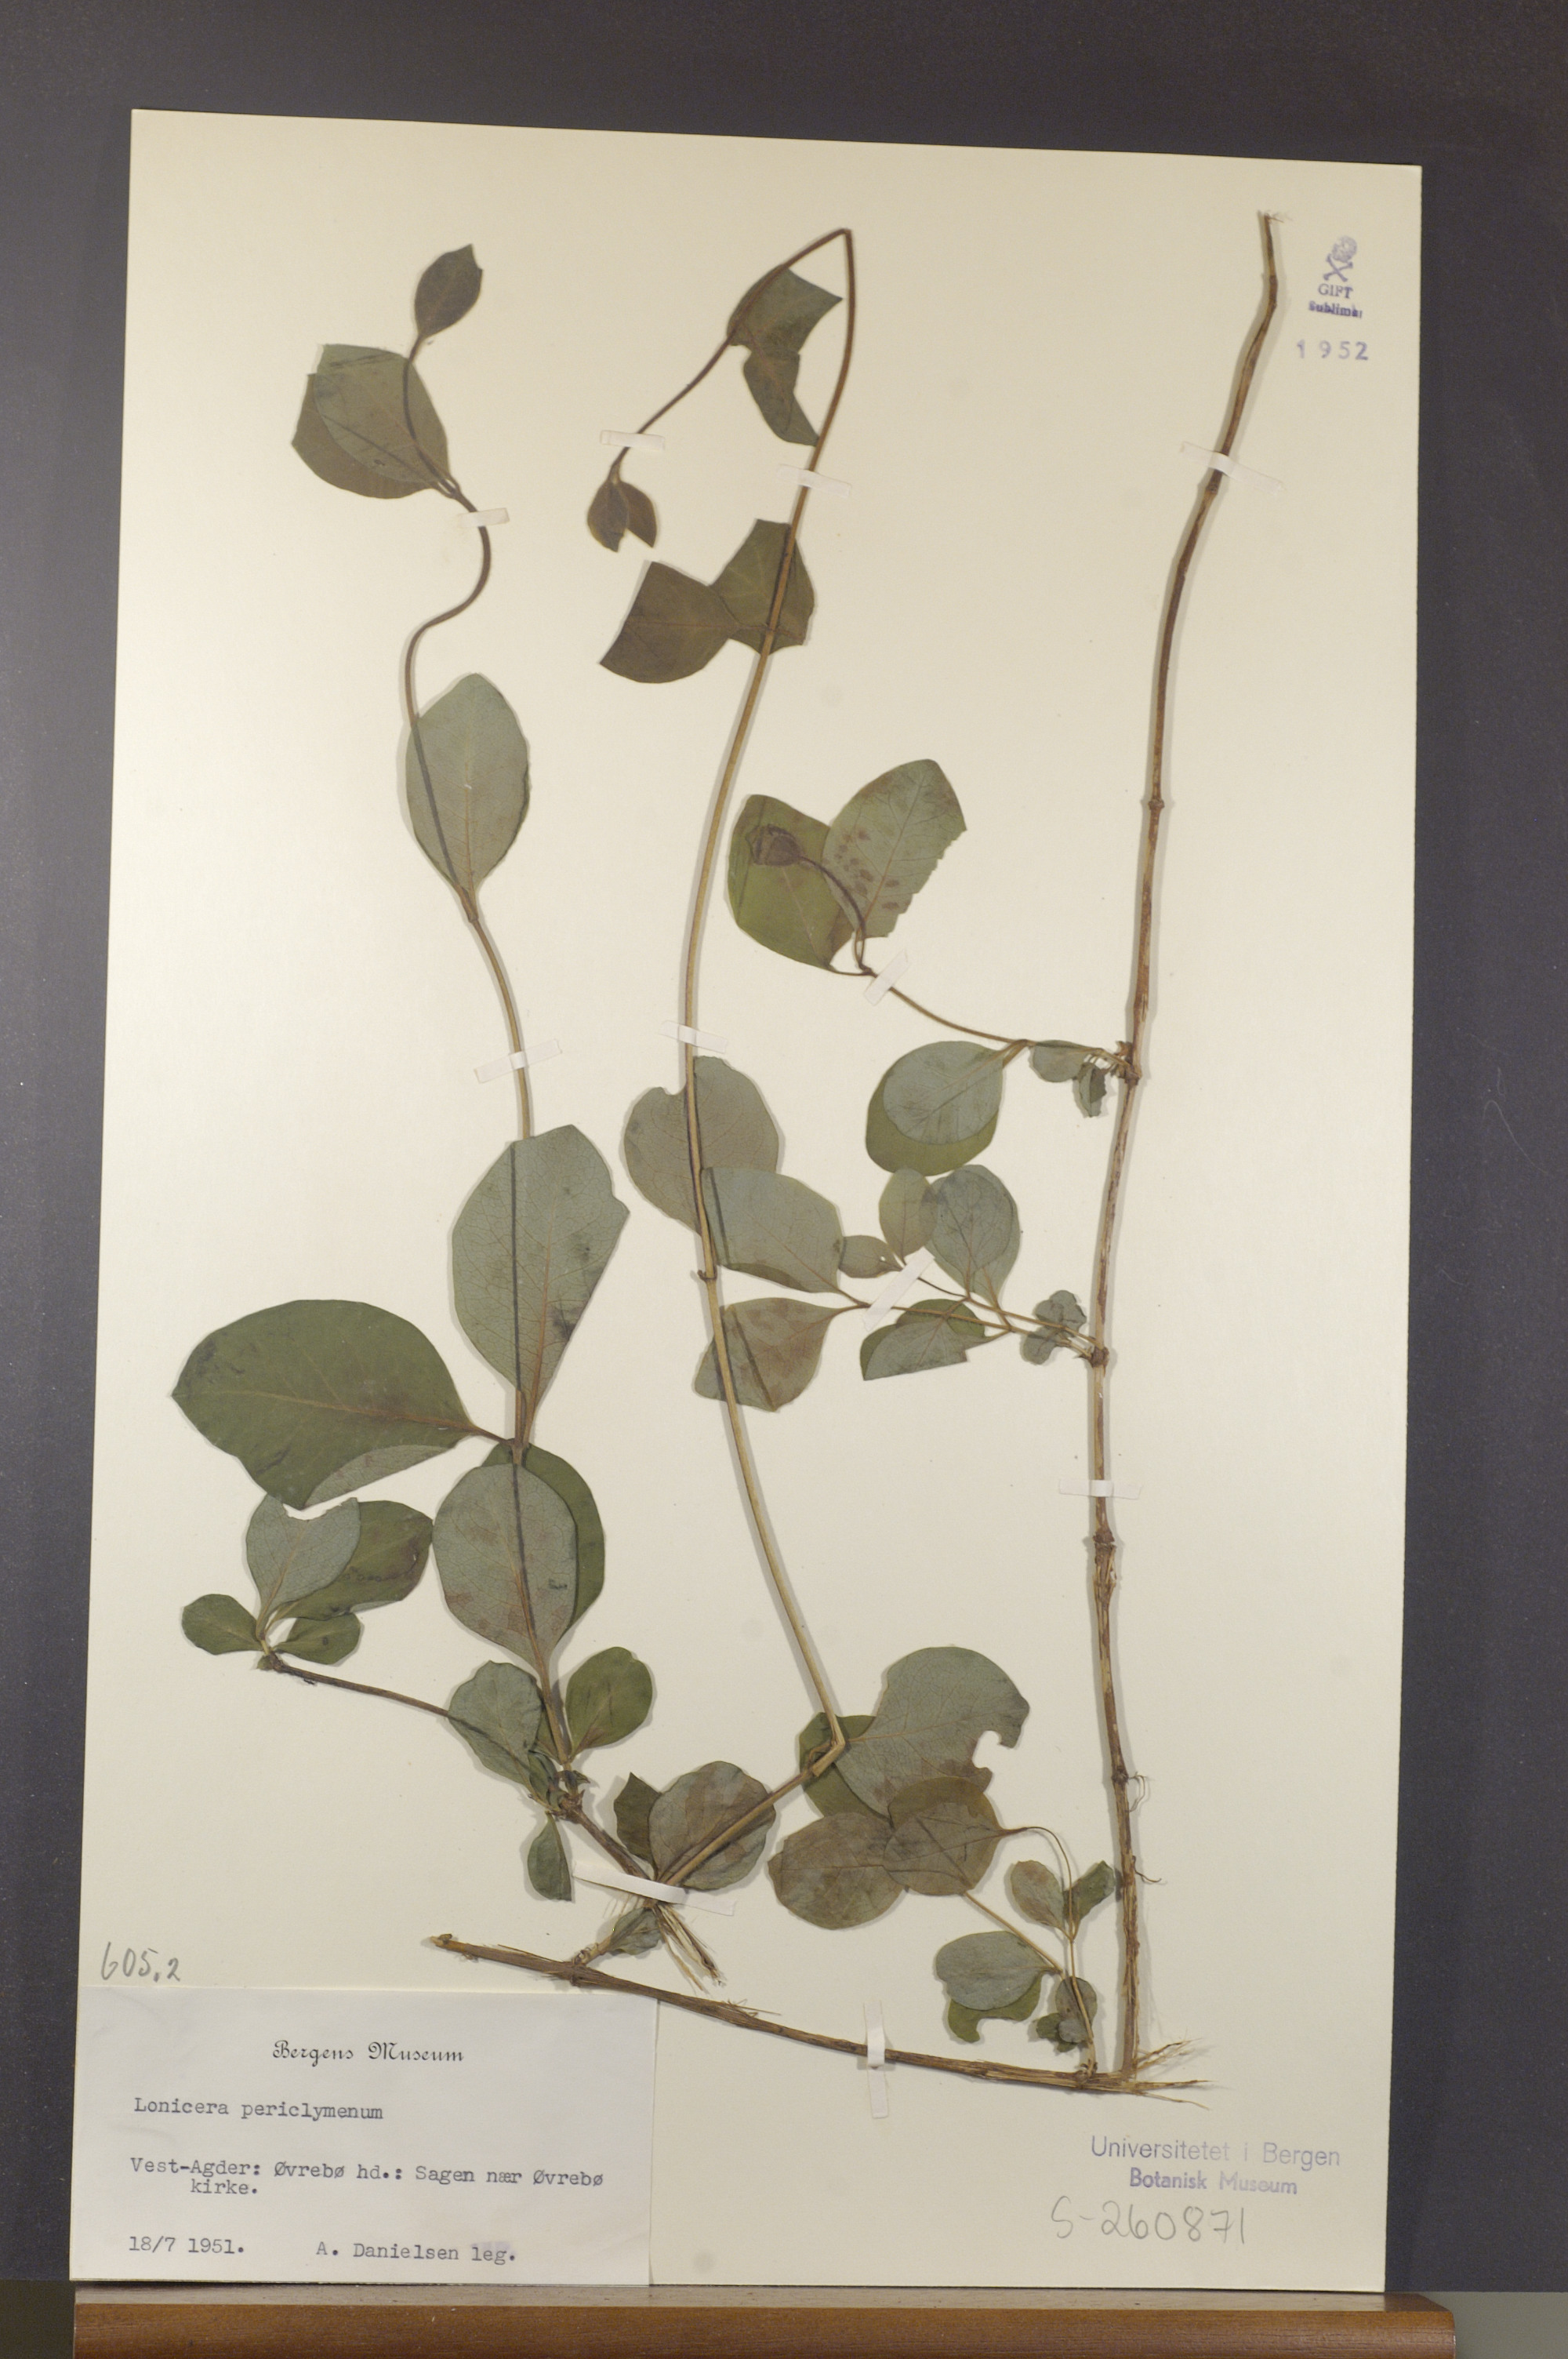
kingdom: Plantae
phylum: Tracheophyta
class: Magnoliopsida
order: Dipsacales
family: Caprifoliaceae
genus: Lonicera
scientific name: Lonicera periclymenum
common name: European honeysuckle
